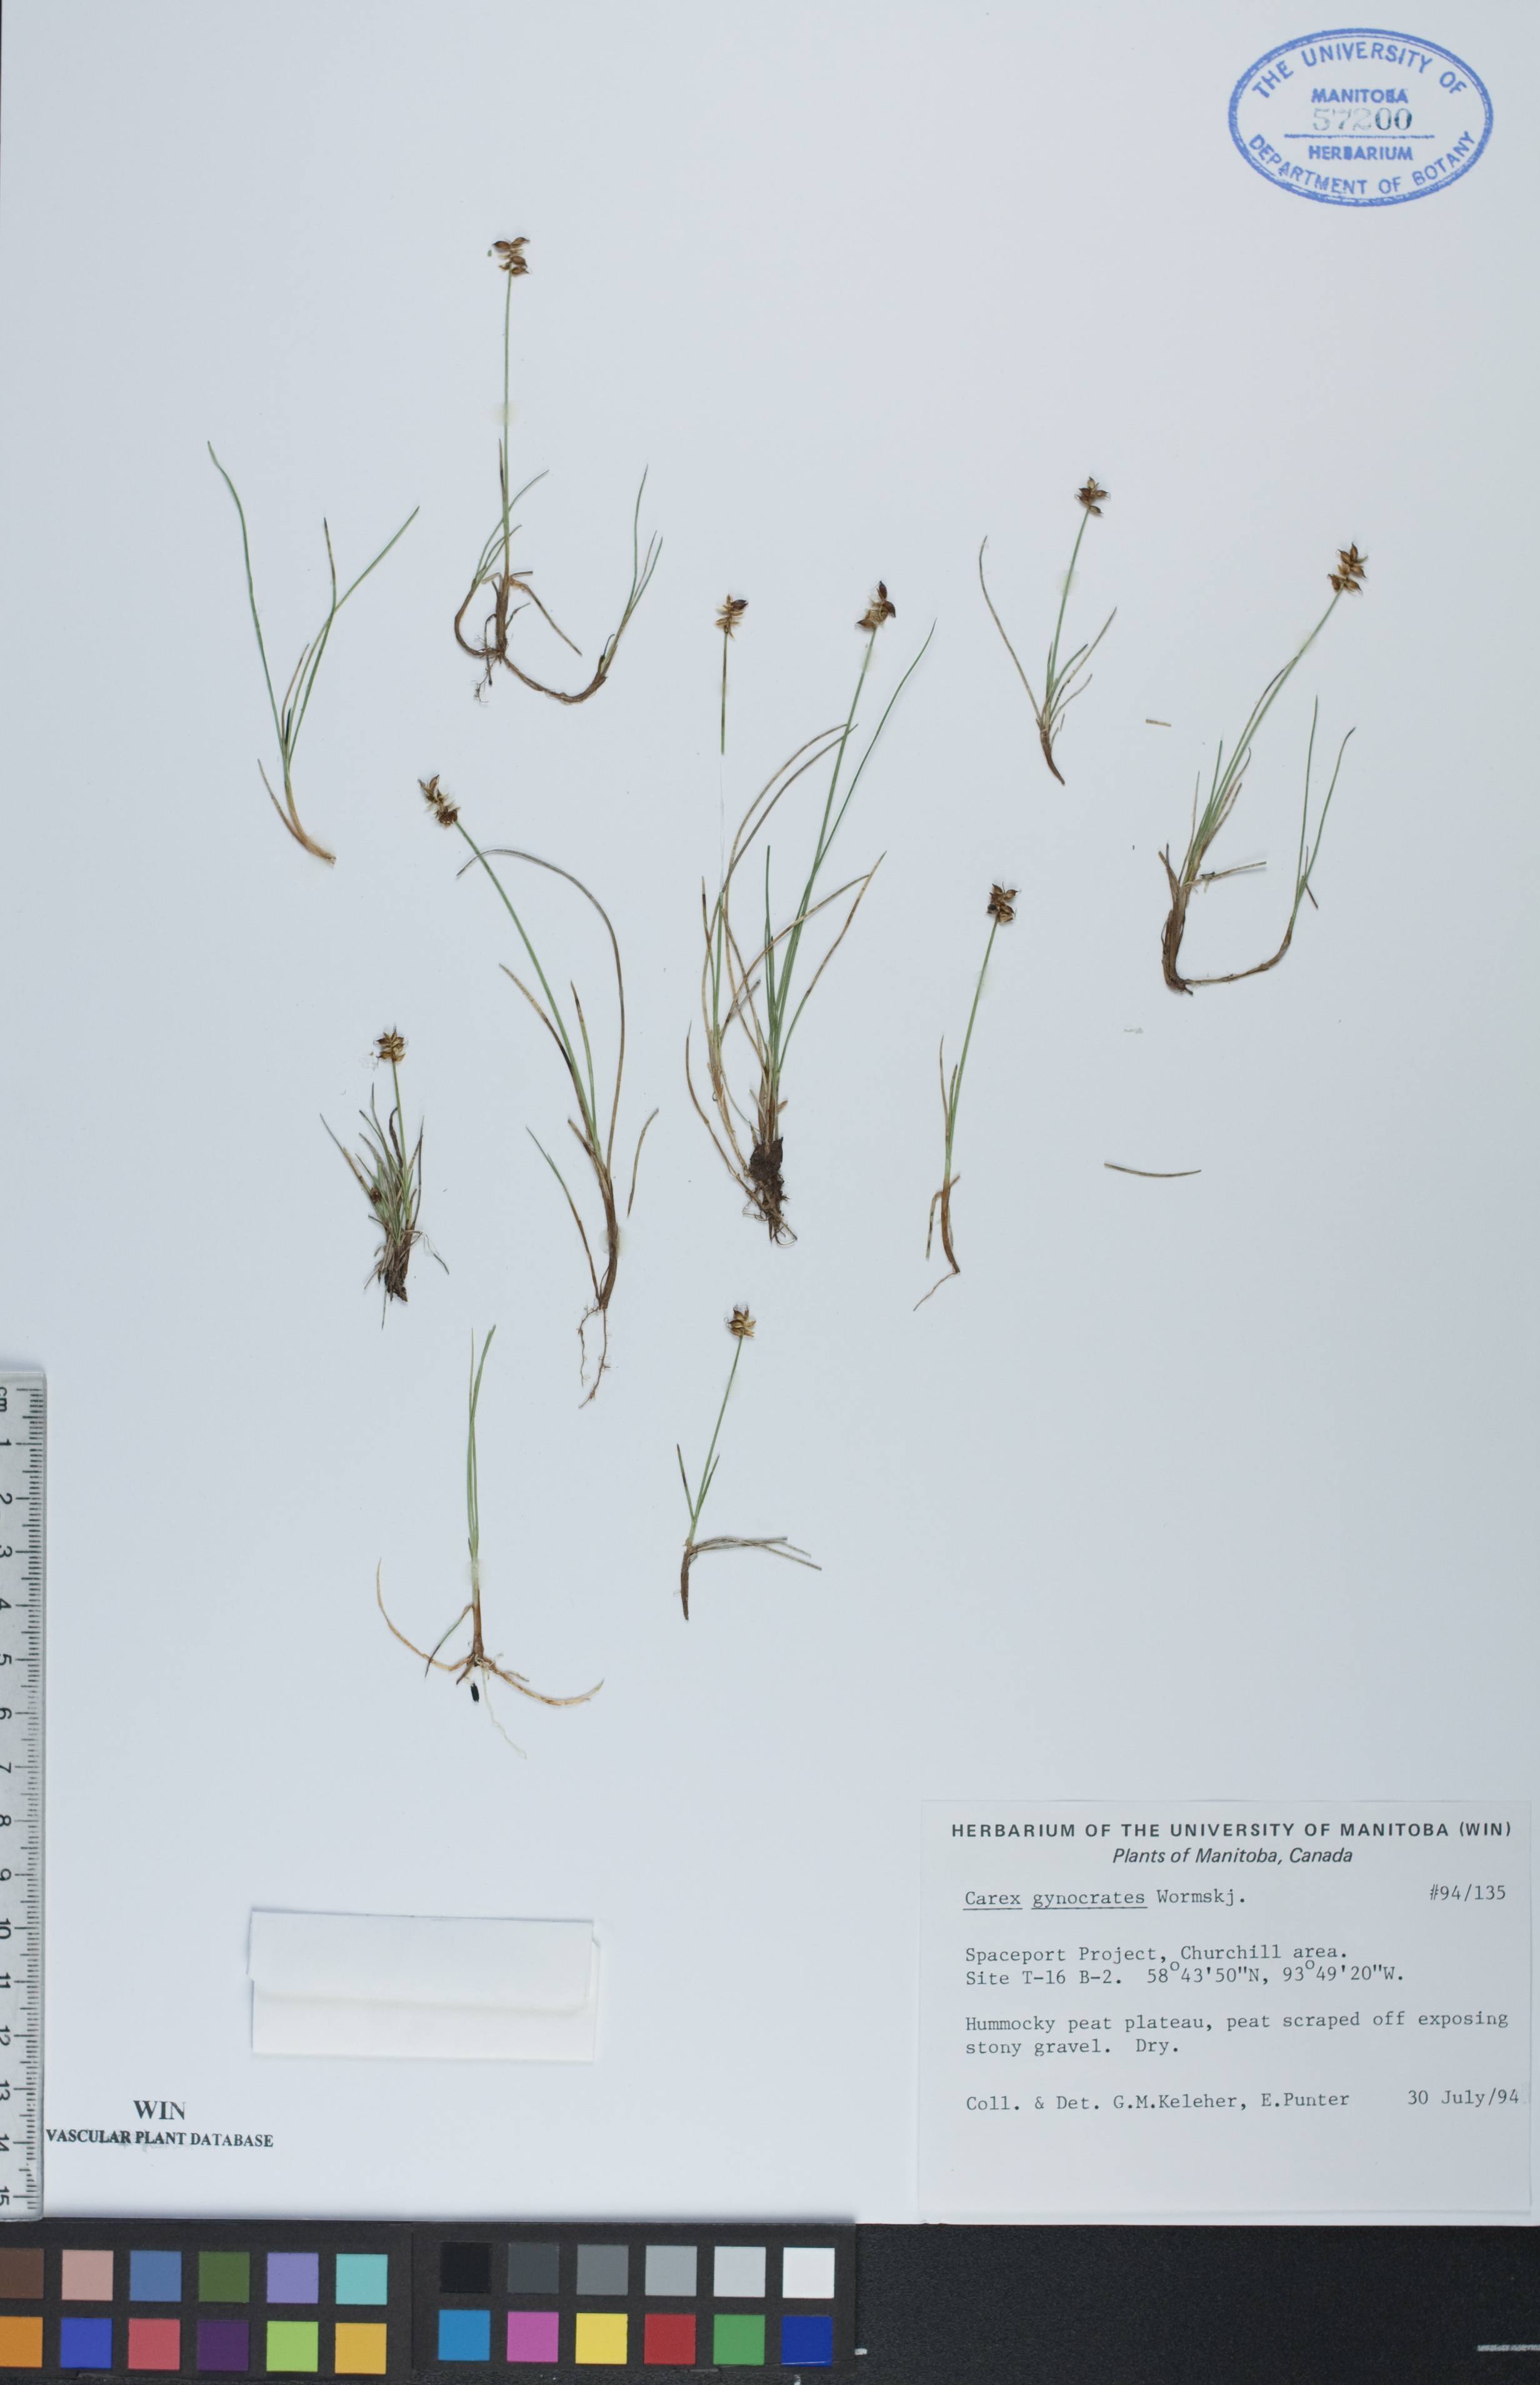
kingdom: Plantae
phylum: Tracheophyta
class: Liliopsida
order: Poales
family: Cyperaceae
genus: Carex
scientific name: Carex nardina
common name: Nard sedge
